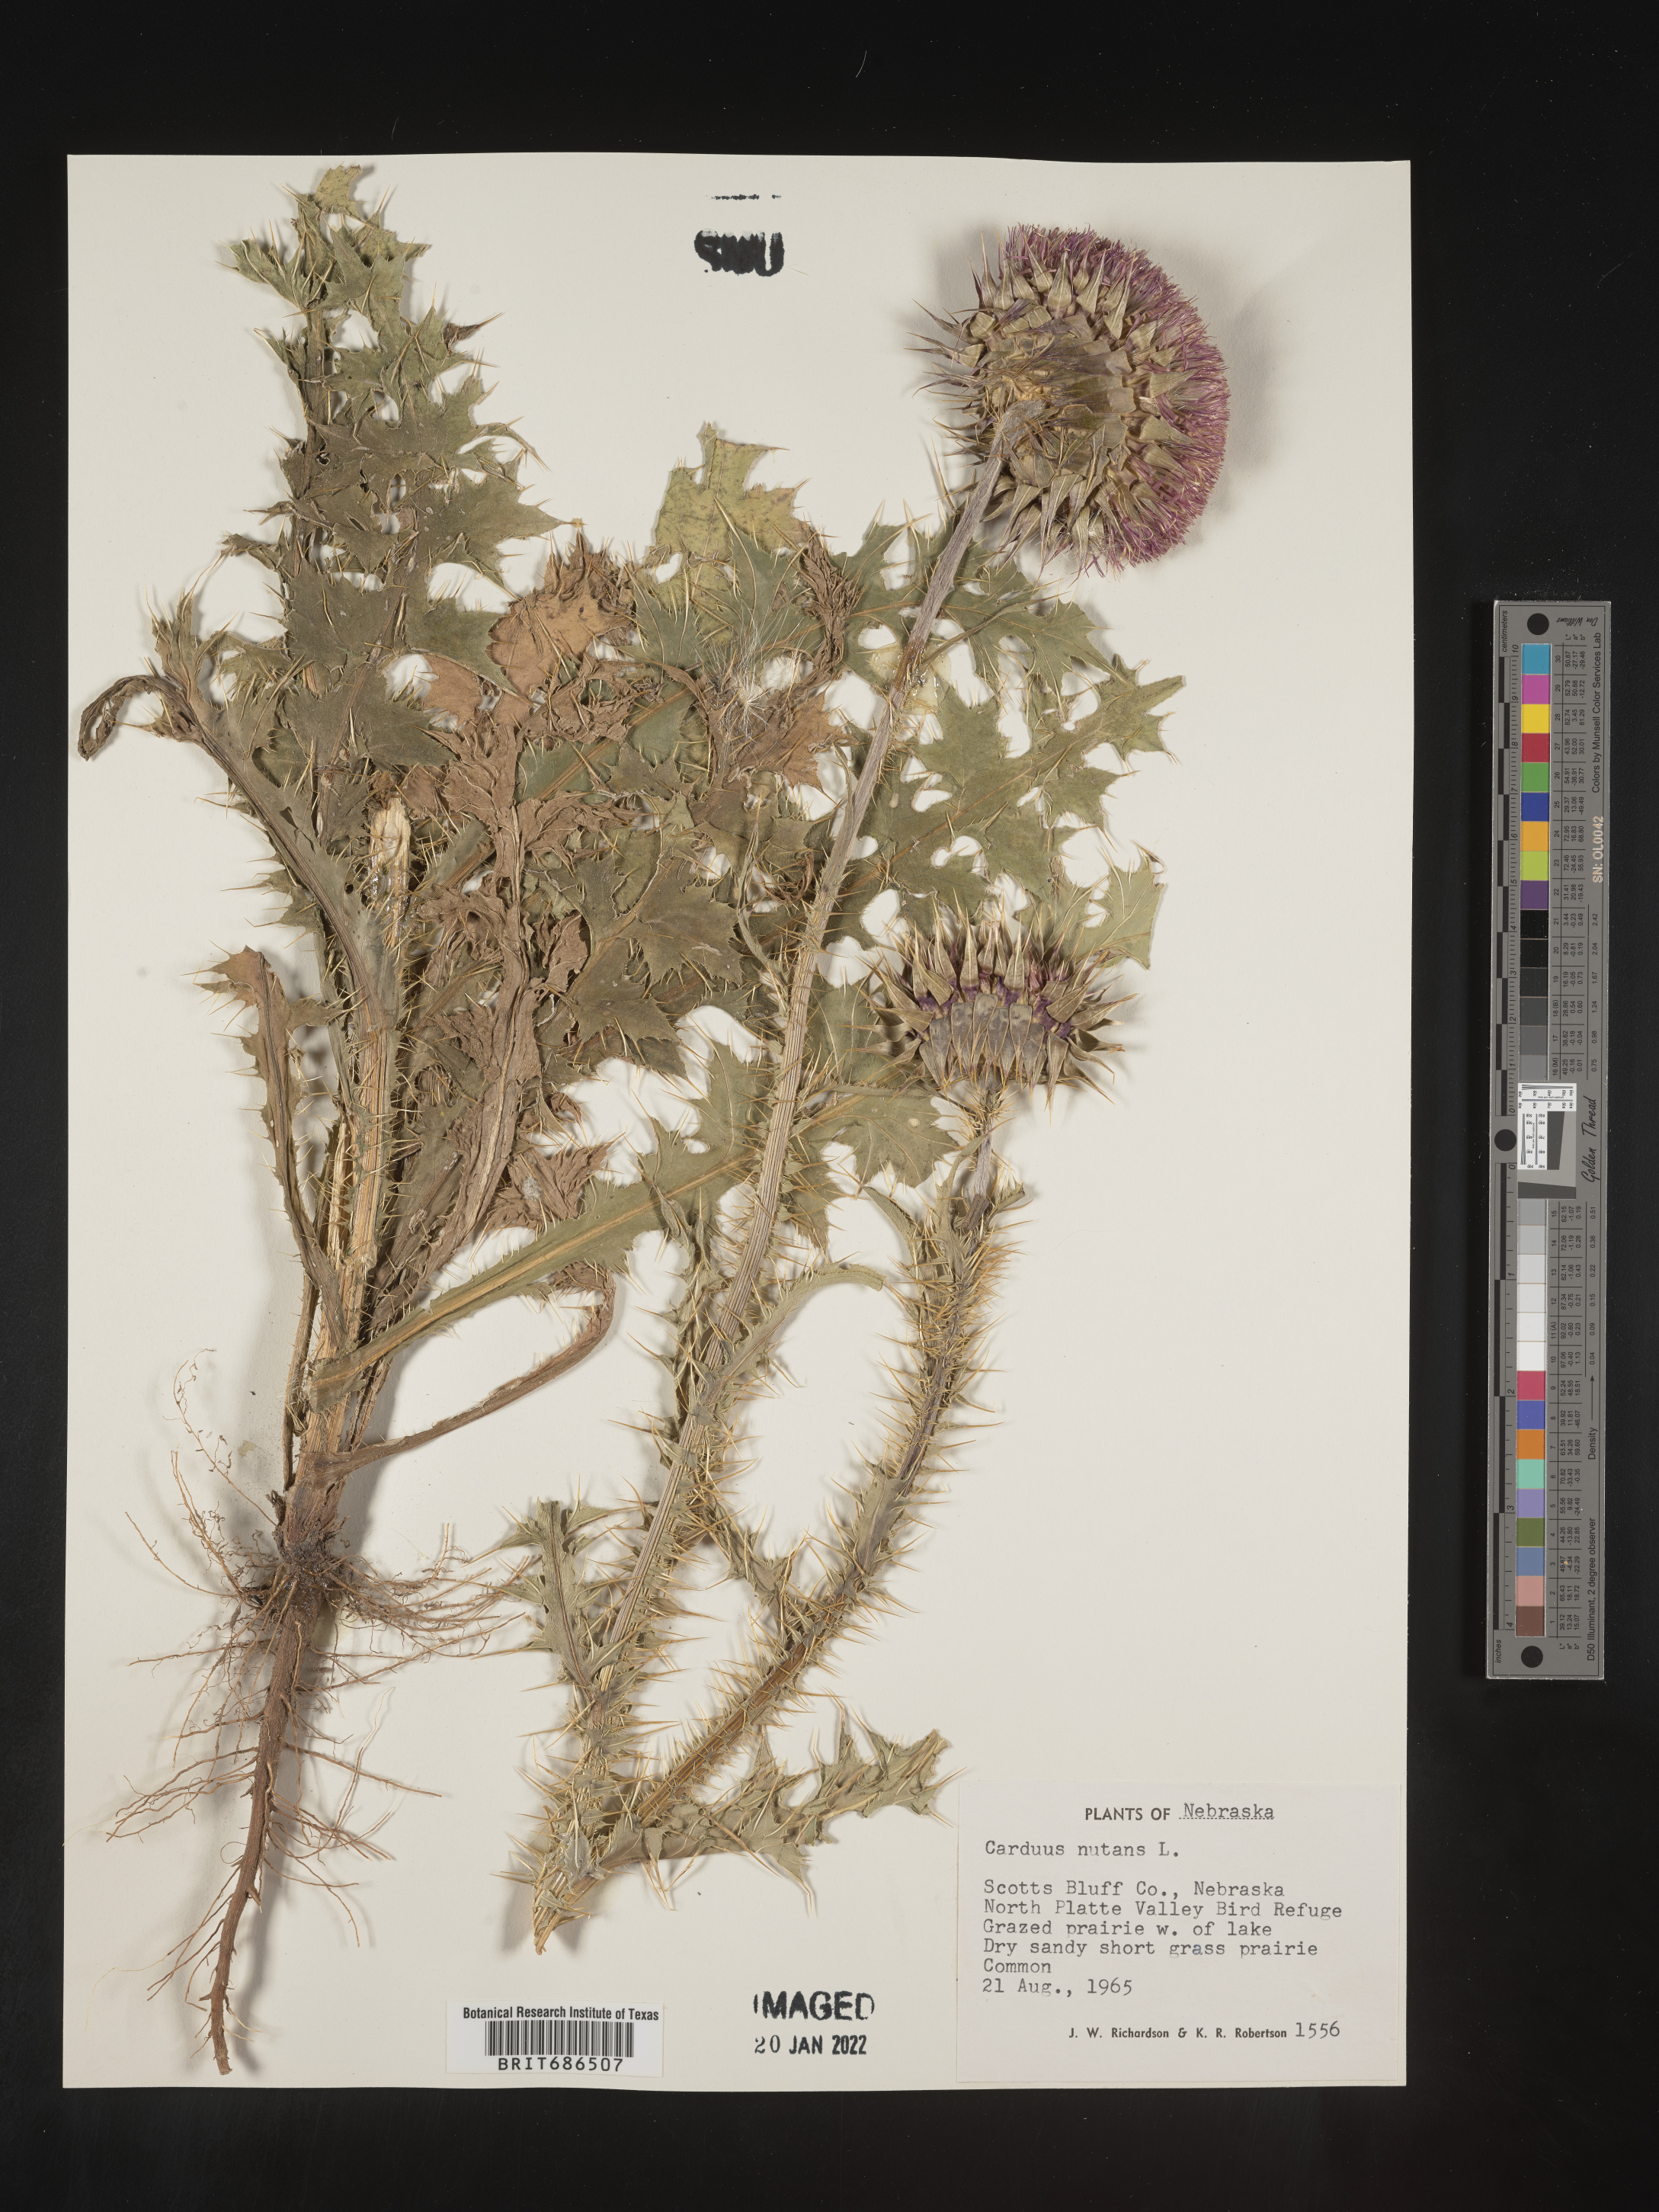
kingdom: Plantae
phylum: Tracheophyta
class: Magnoliopsida
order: Asterales
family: Asteraceae
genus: Carduus
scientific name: Carduus nutans
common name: Musk thistle
